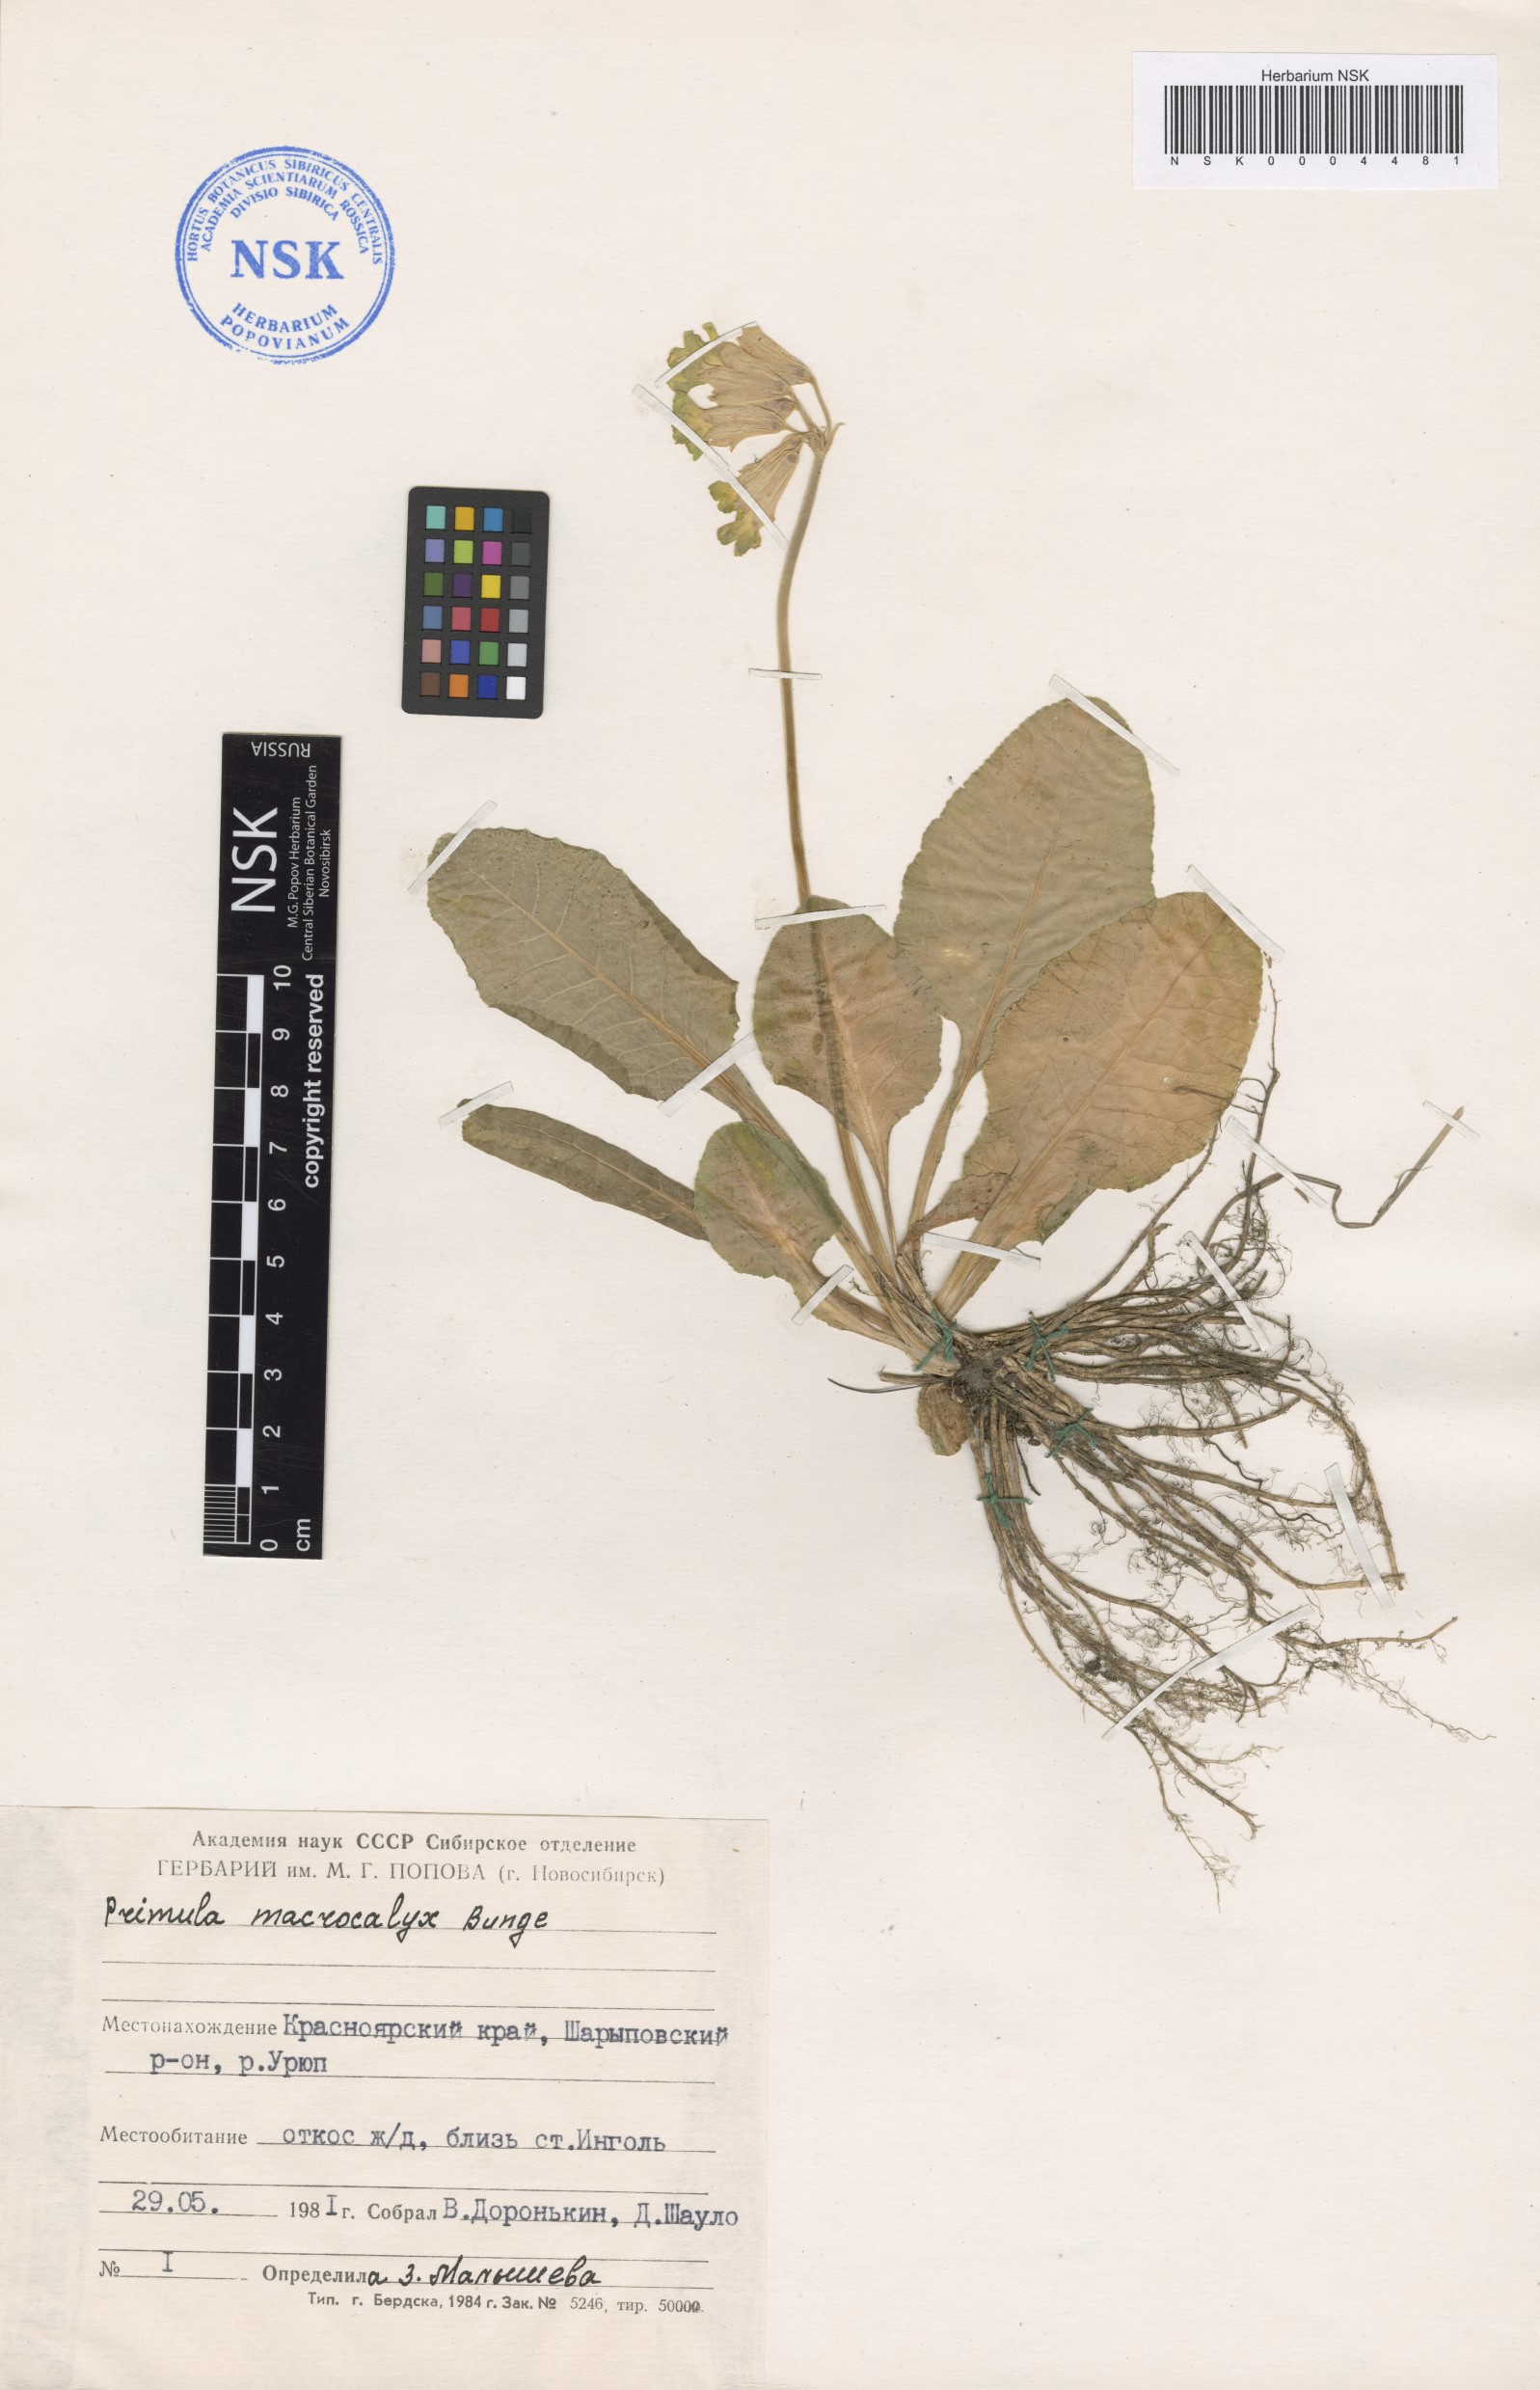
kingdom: Plantae
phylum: Tracheophyta
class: Magnoliopsida
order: Ericales
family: Primulaceae
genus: Primula
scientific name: Primula veris
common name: Cowslip
